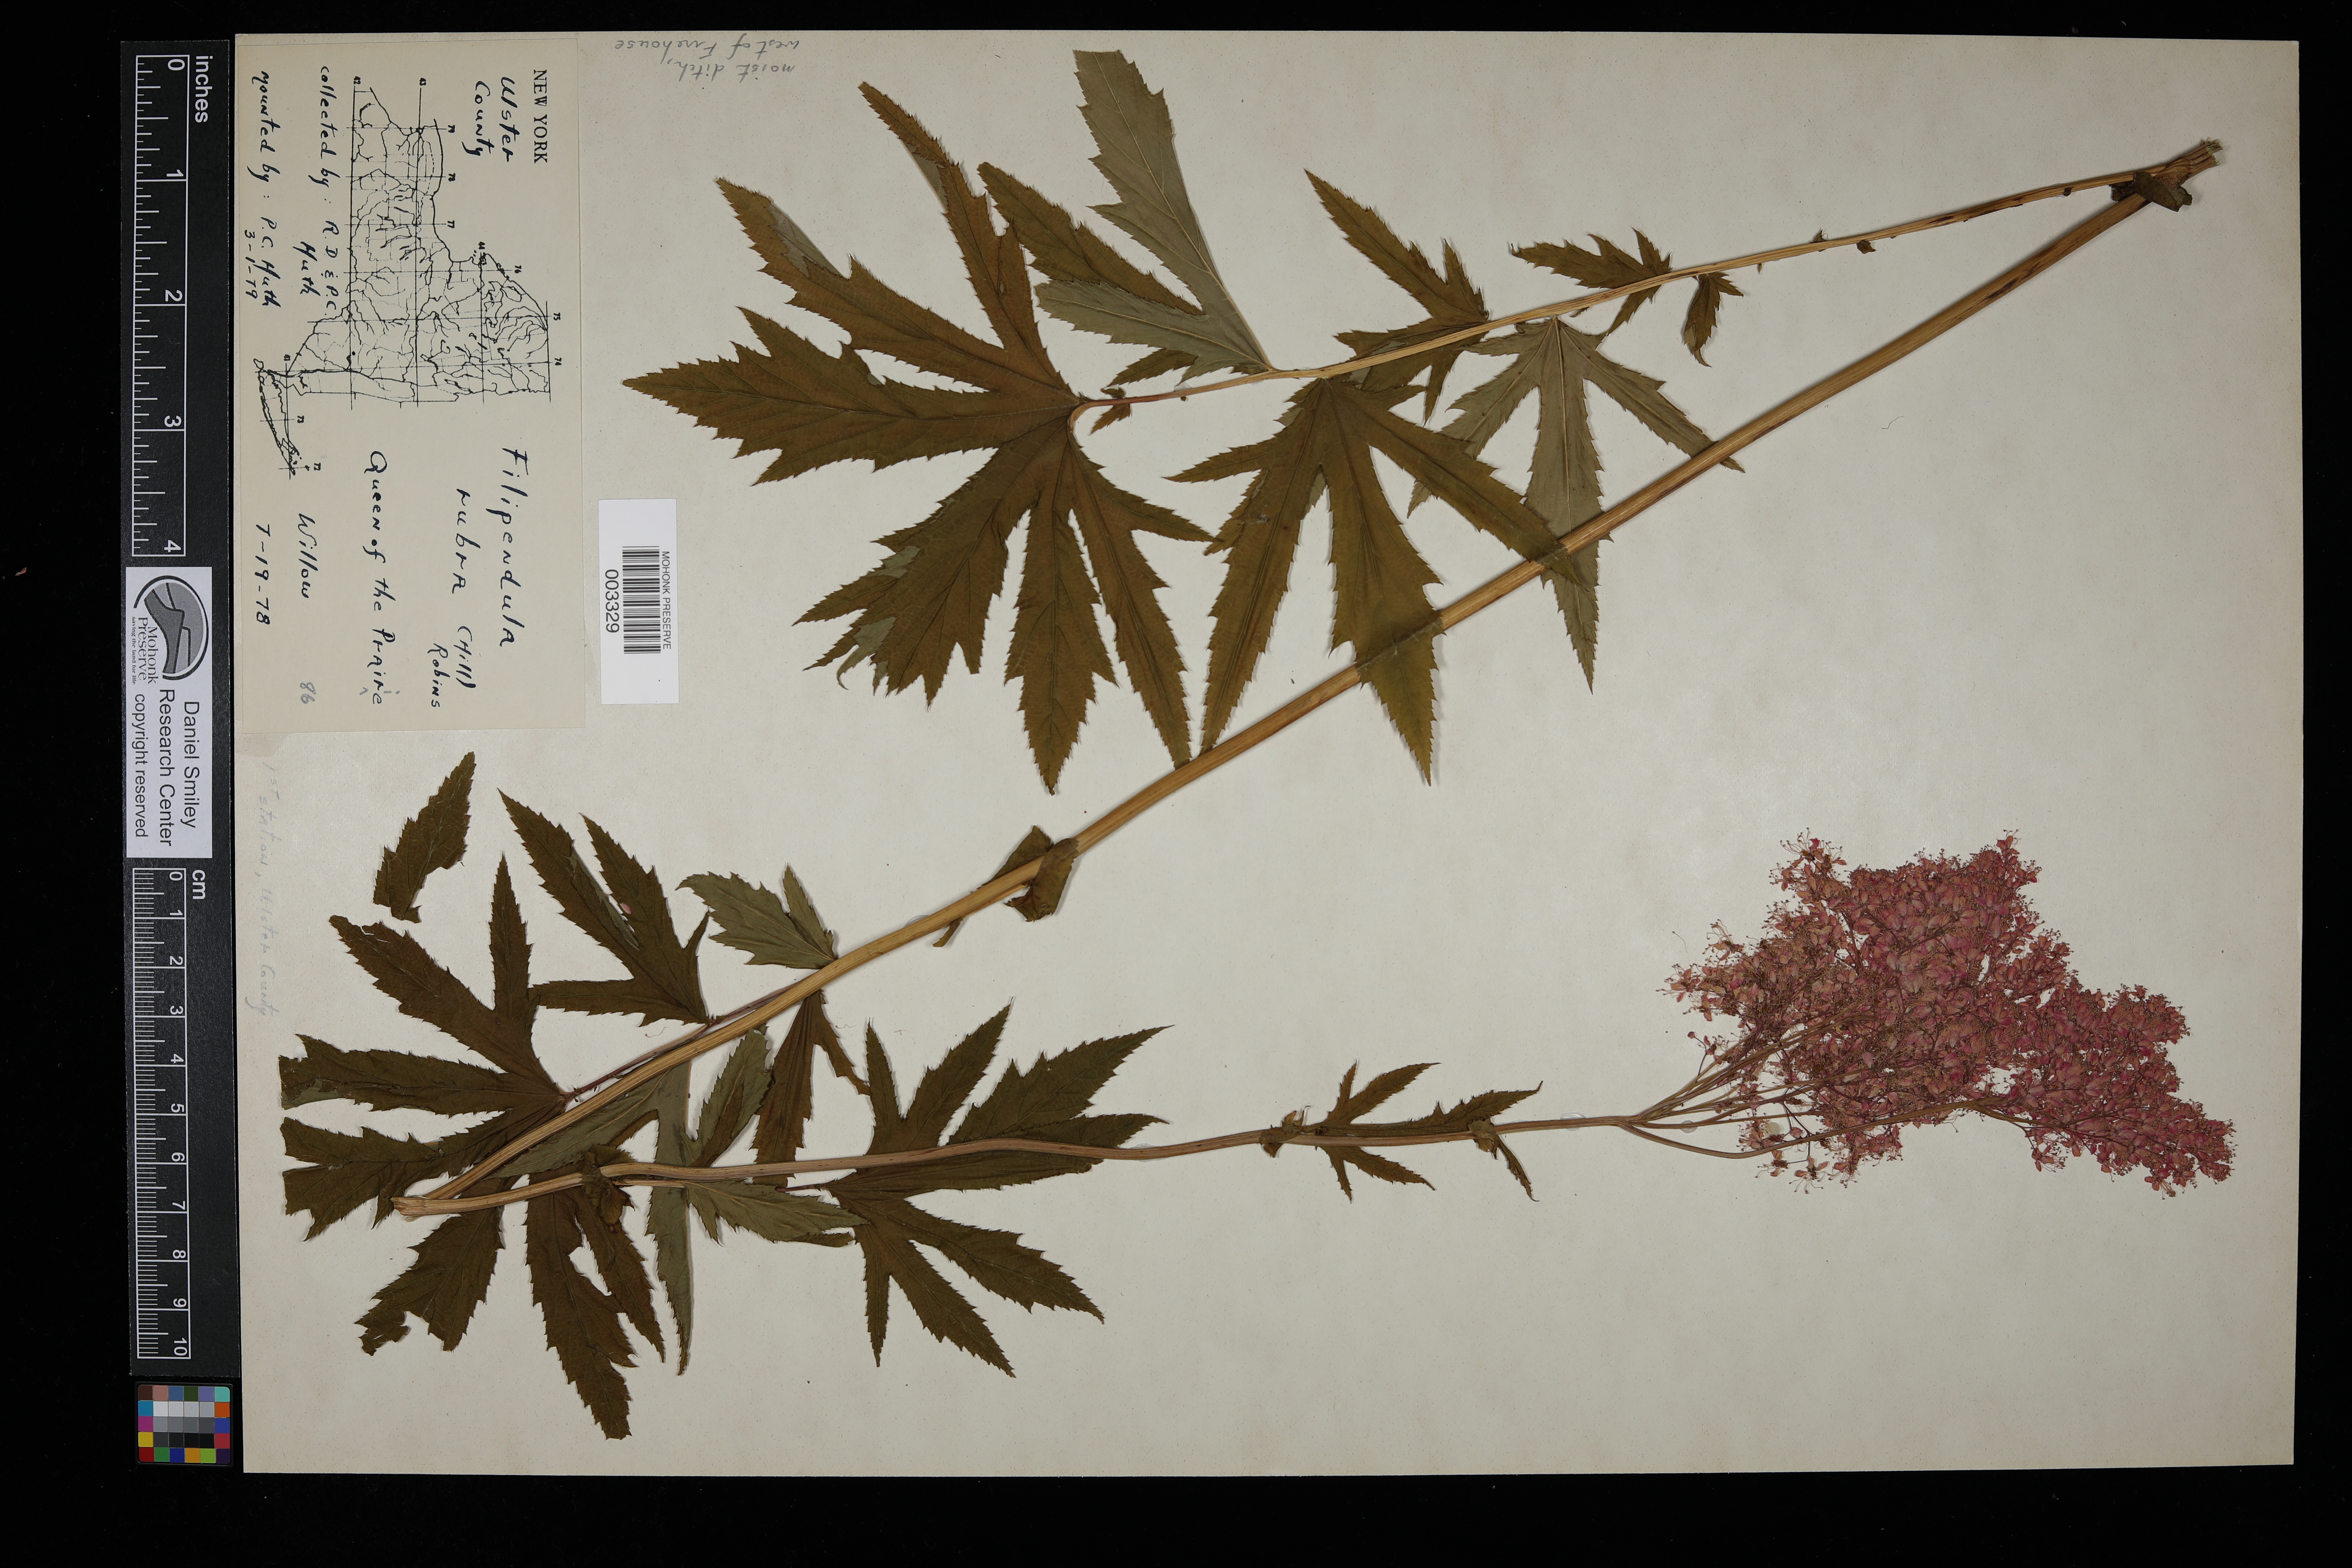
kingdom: Plantae
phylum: Tracheophyta
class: Magnoliopsida
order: Rosales
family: Rosaceae
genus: Filipendula
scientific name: Filipendula rubra
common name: Queen-of-the-prairie
